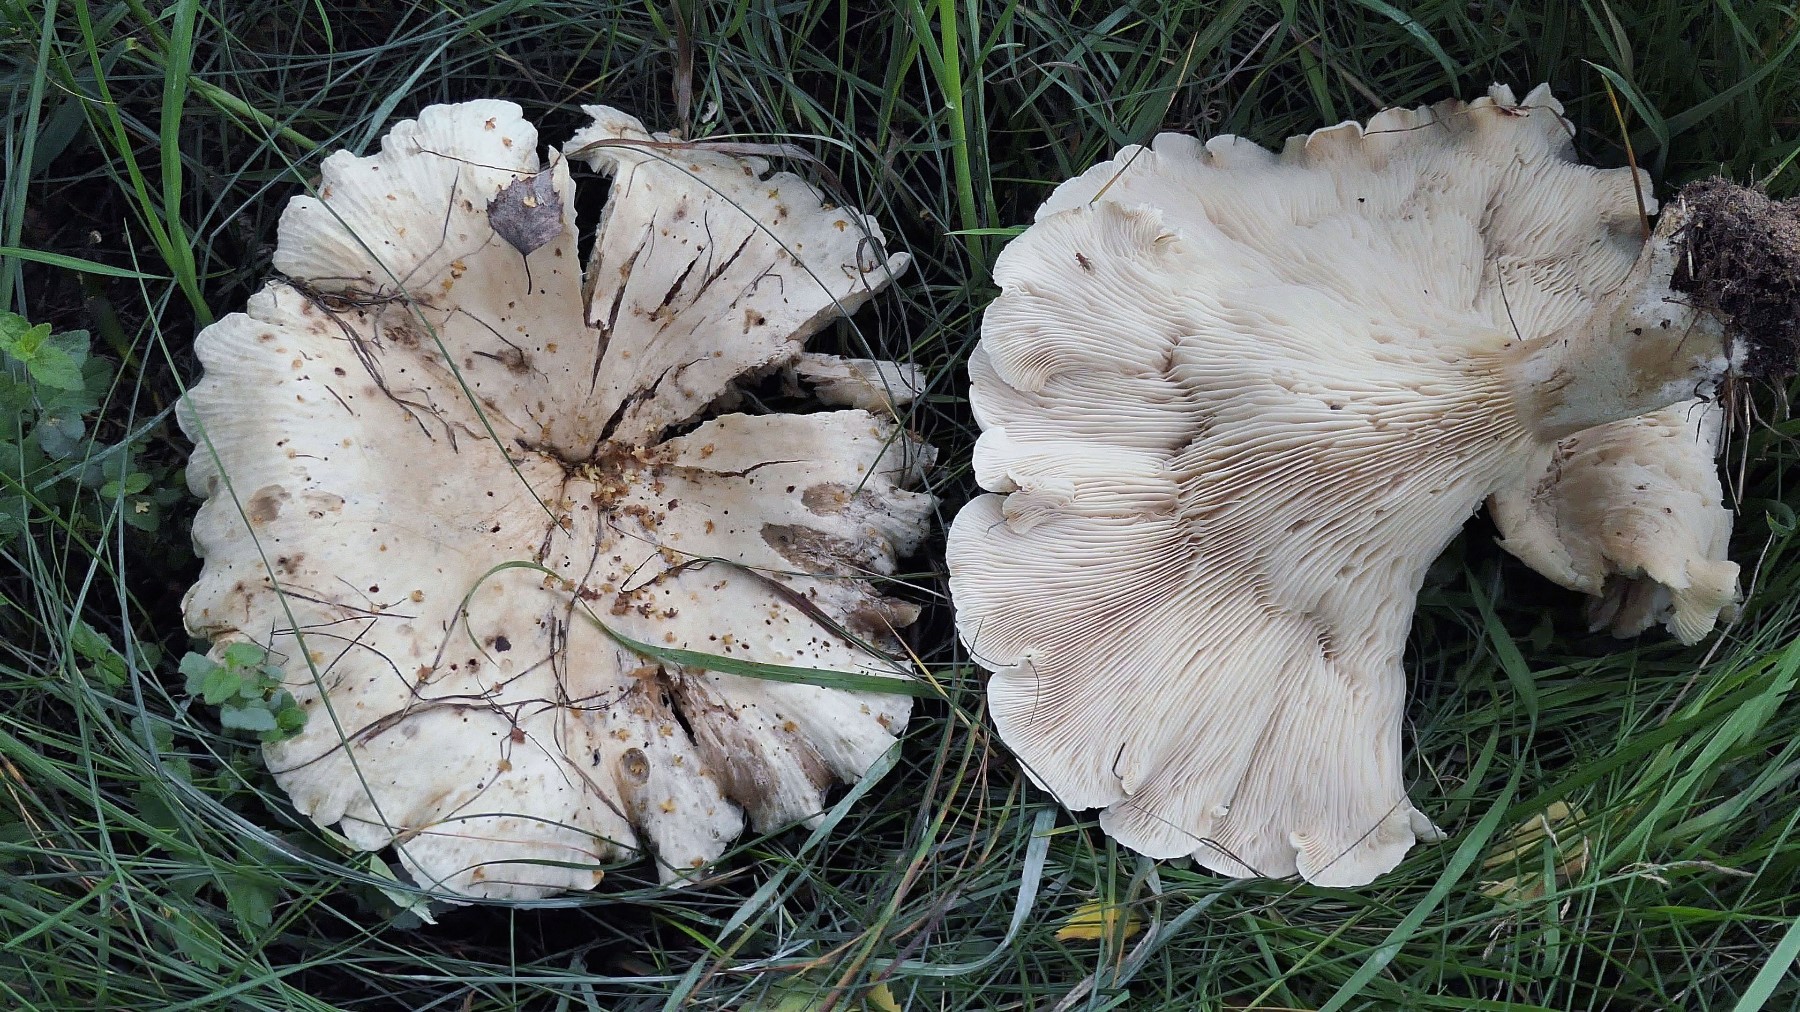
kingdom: Fungi
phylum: Basidiomycota
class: Agaricomycetes
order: Agaricales
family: Tricholomataceae
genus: Aspropaxillus
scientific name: Aspropaxillus giganteus
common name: kæmpe-tragtridderhat
